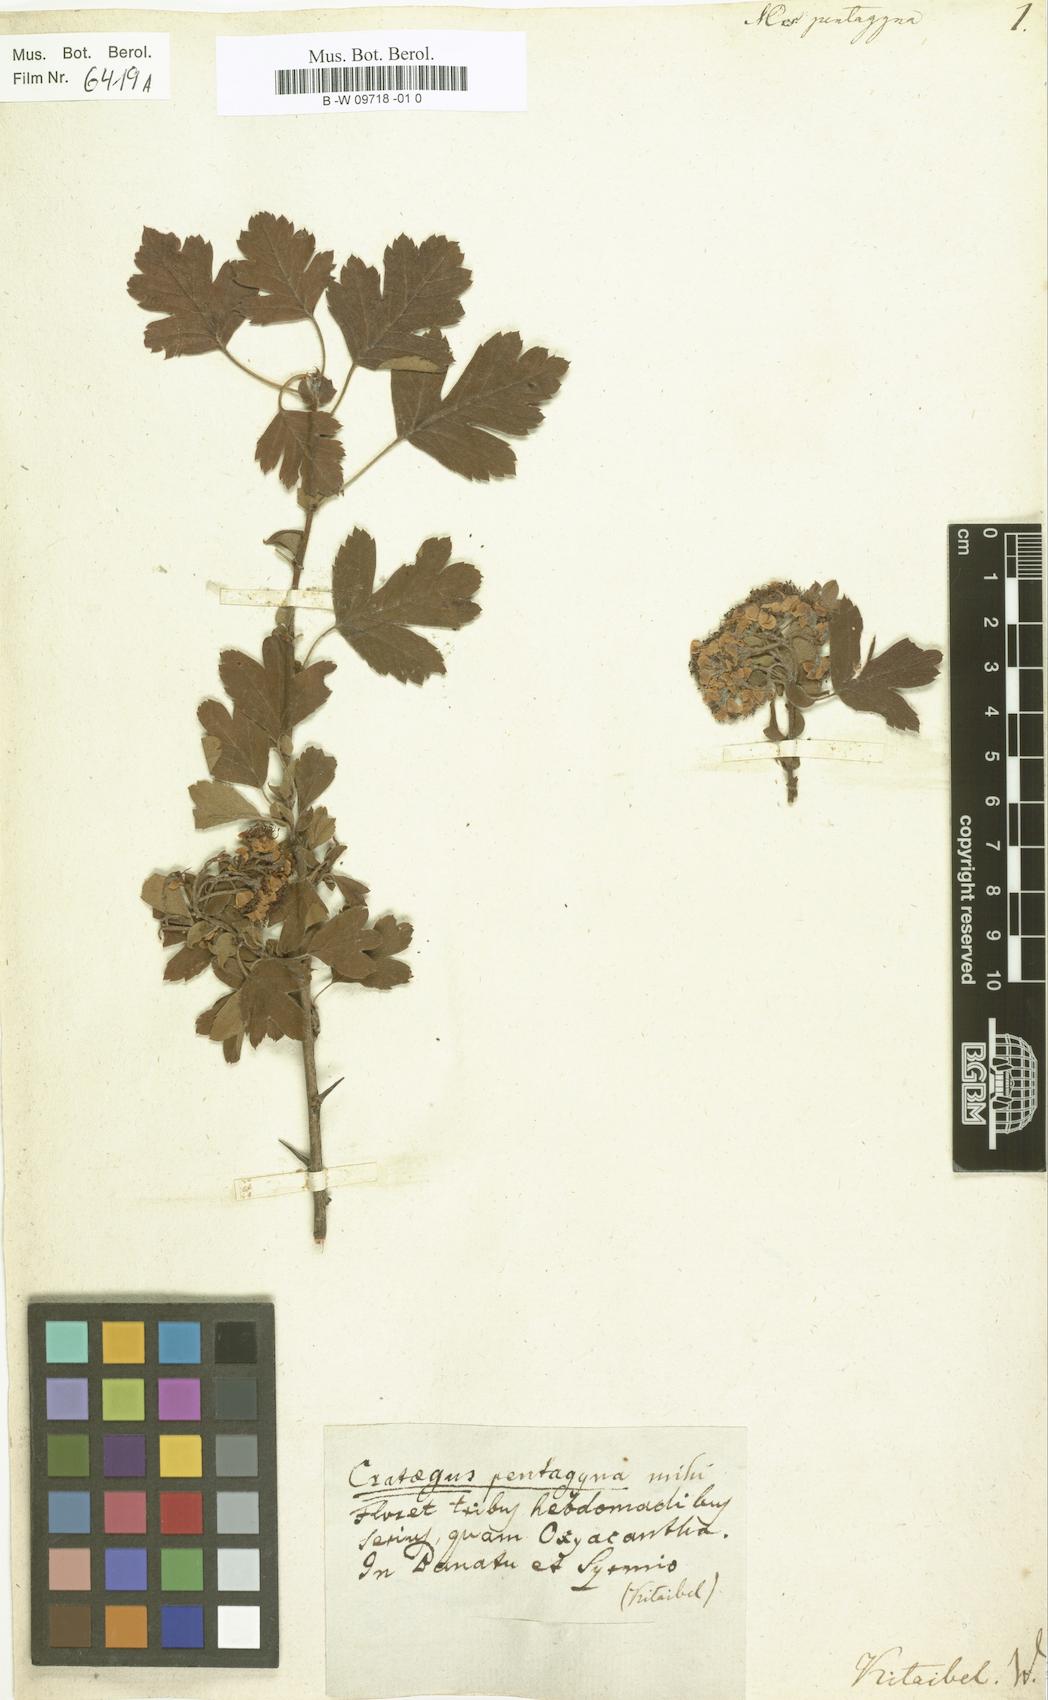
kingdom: Plantae
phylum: Tracheophyta
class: Magnoliopsida
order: Rosales
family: Rosaceae
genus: Crataegus
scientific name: Crataegus pentagyna
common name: Small-flowered black hawthorn
